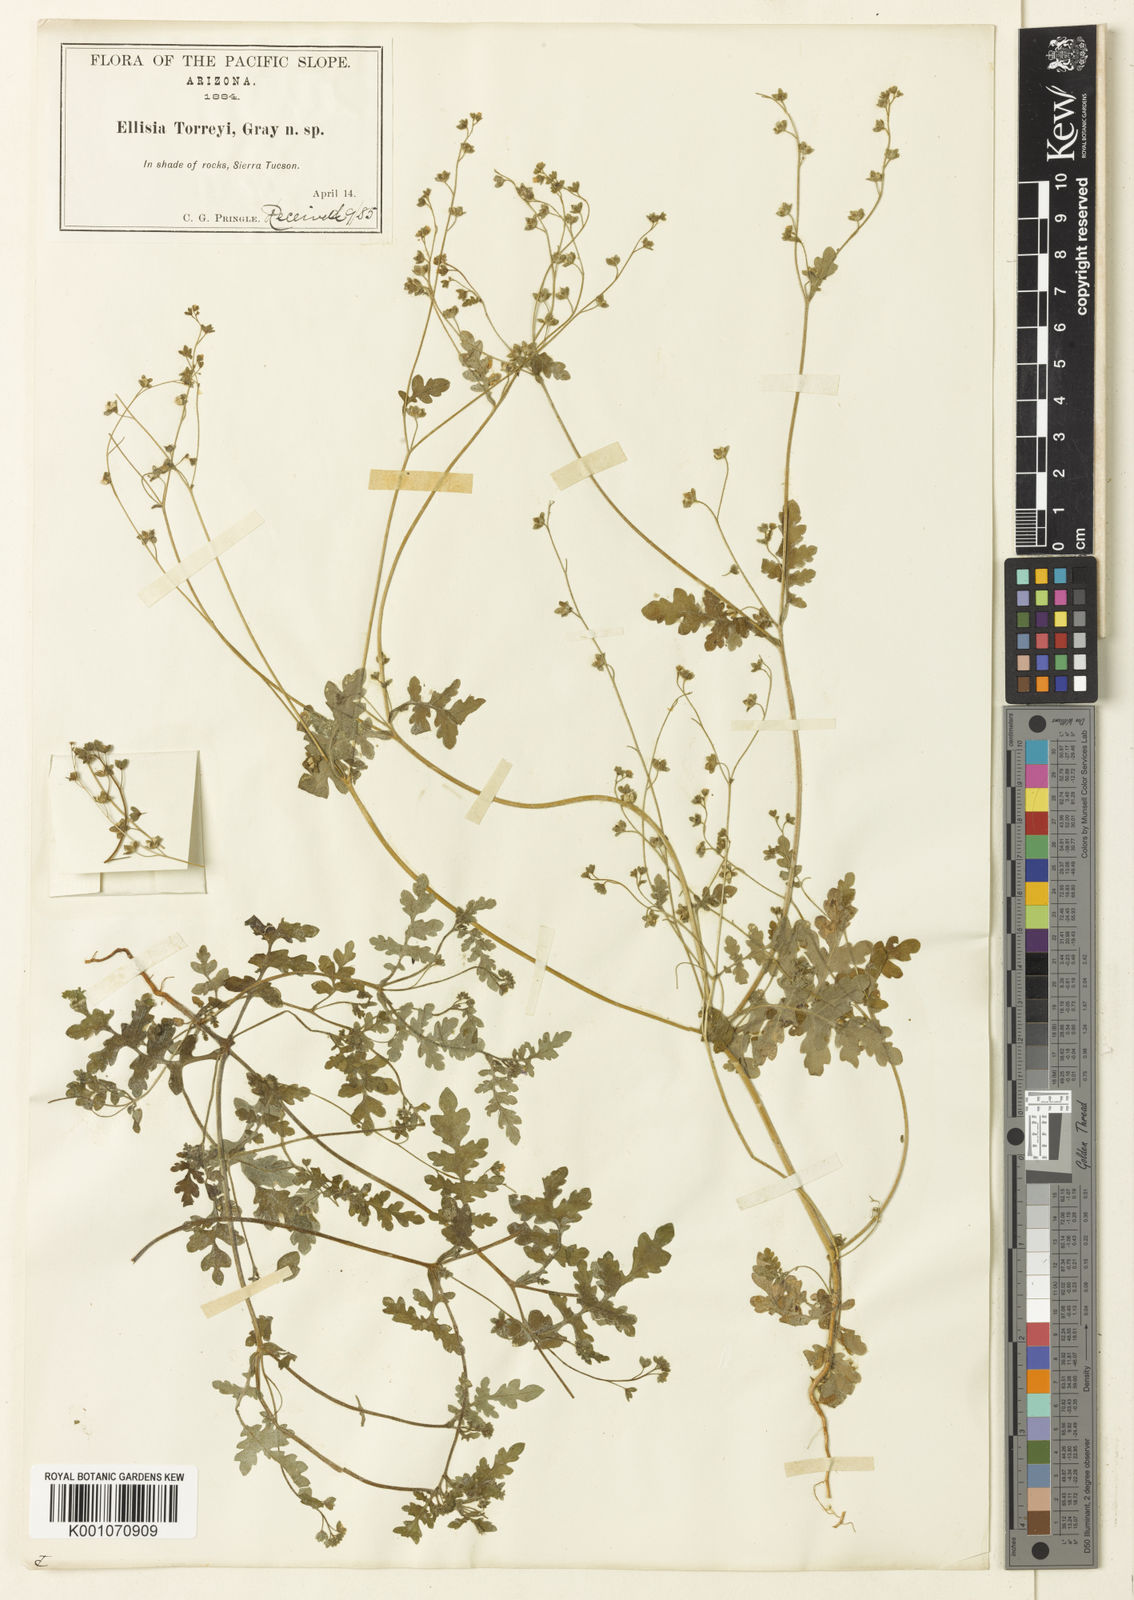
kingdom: Plantae
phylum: Tracheophyta
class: Magnoliopsida
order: Boraginales
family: Hydrophyllaceae
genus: Eucrypta
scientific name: Eucrypta chrysanthemifolia
